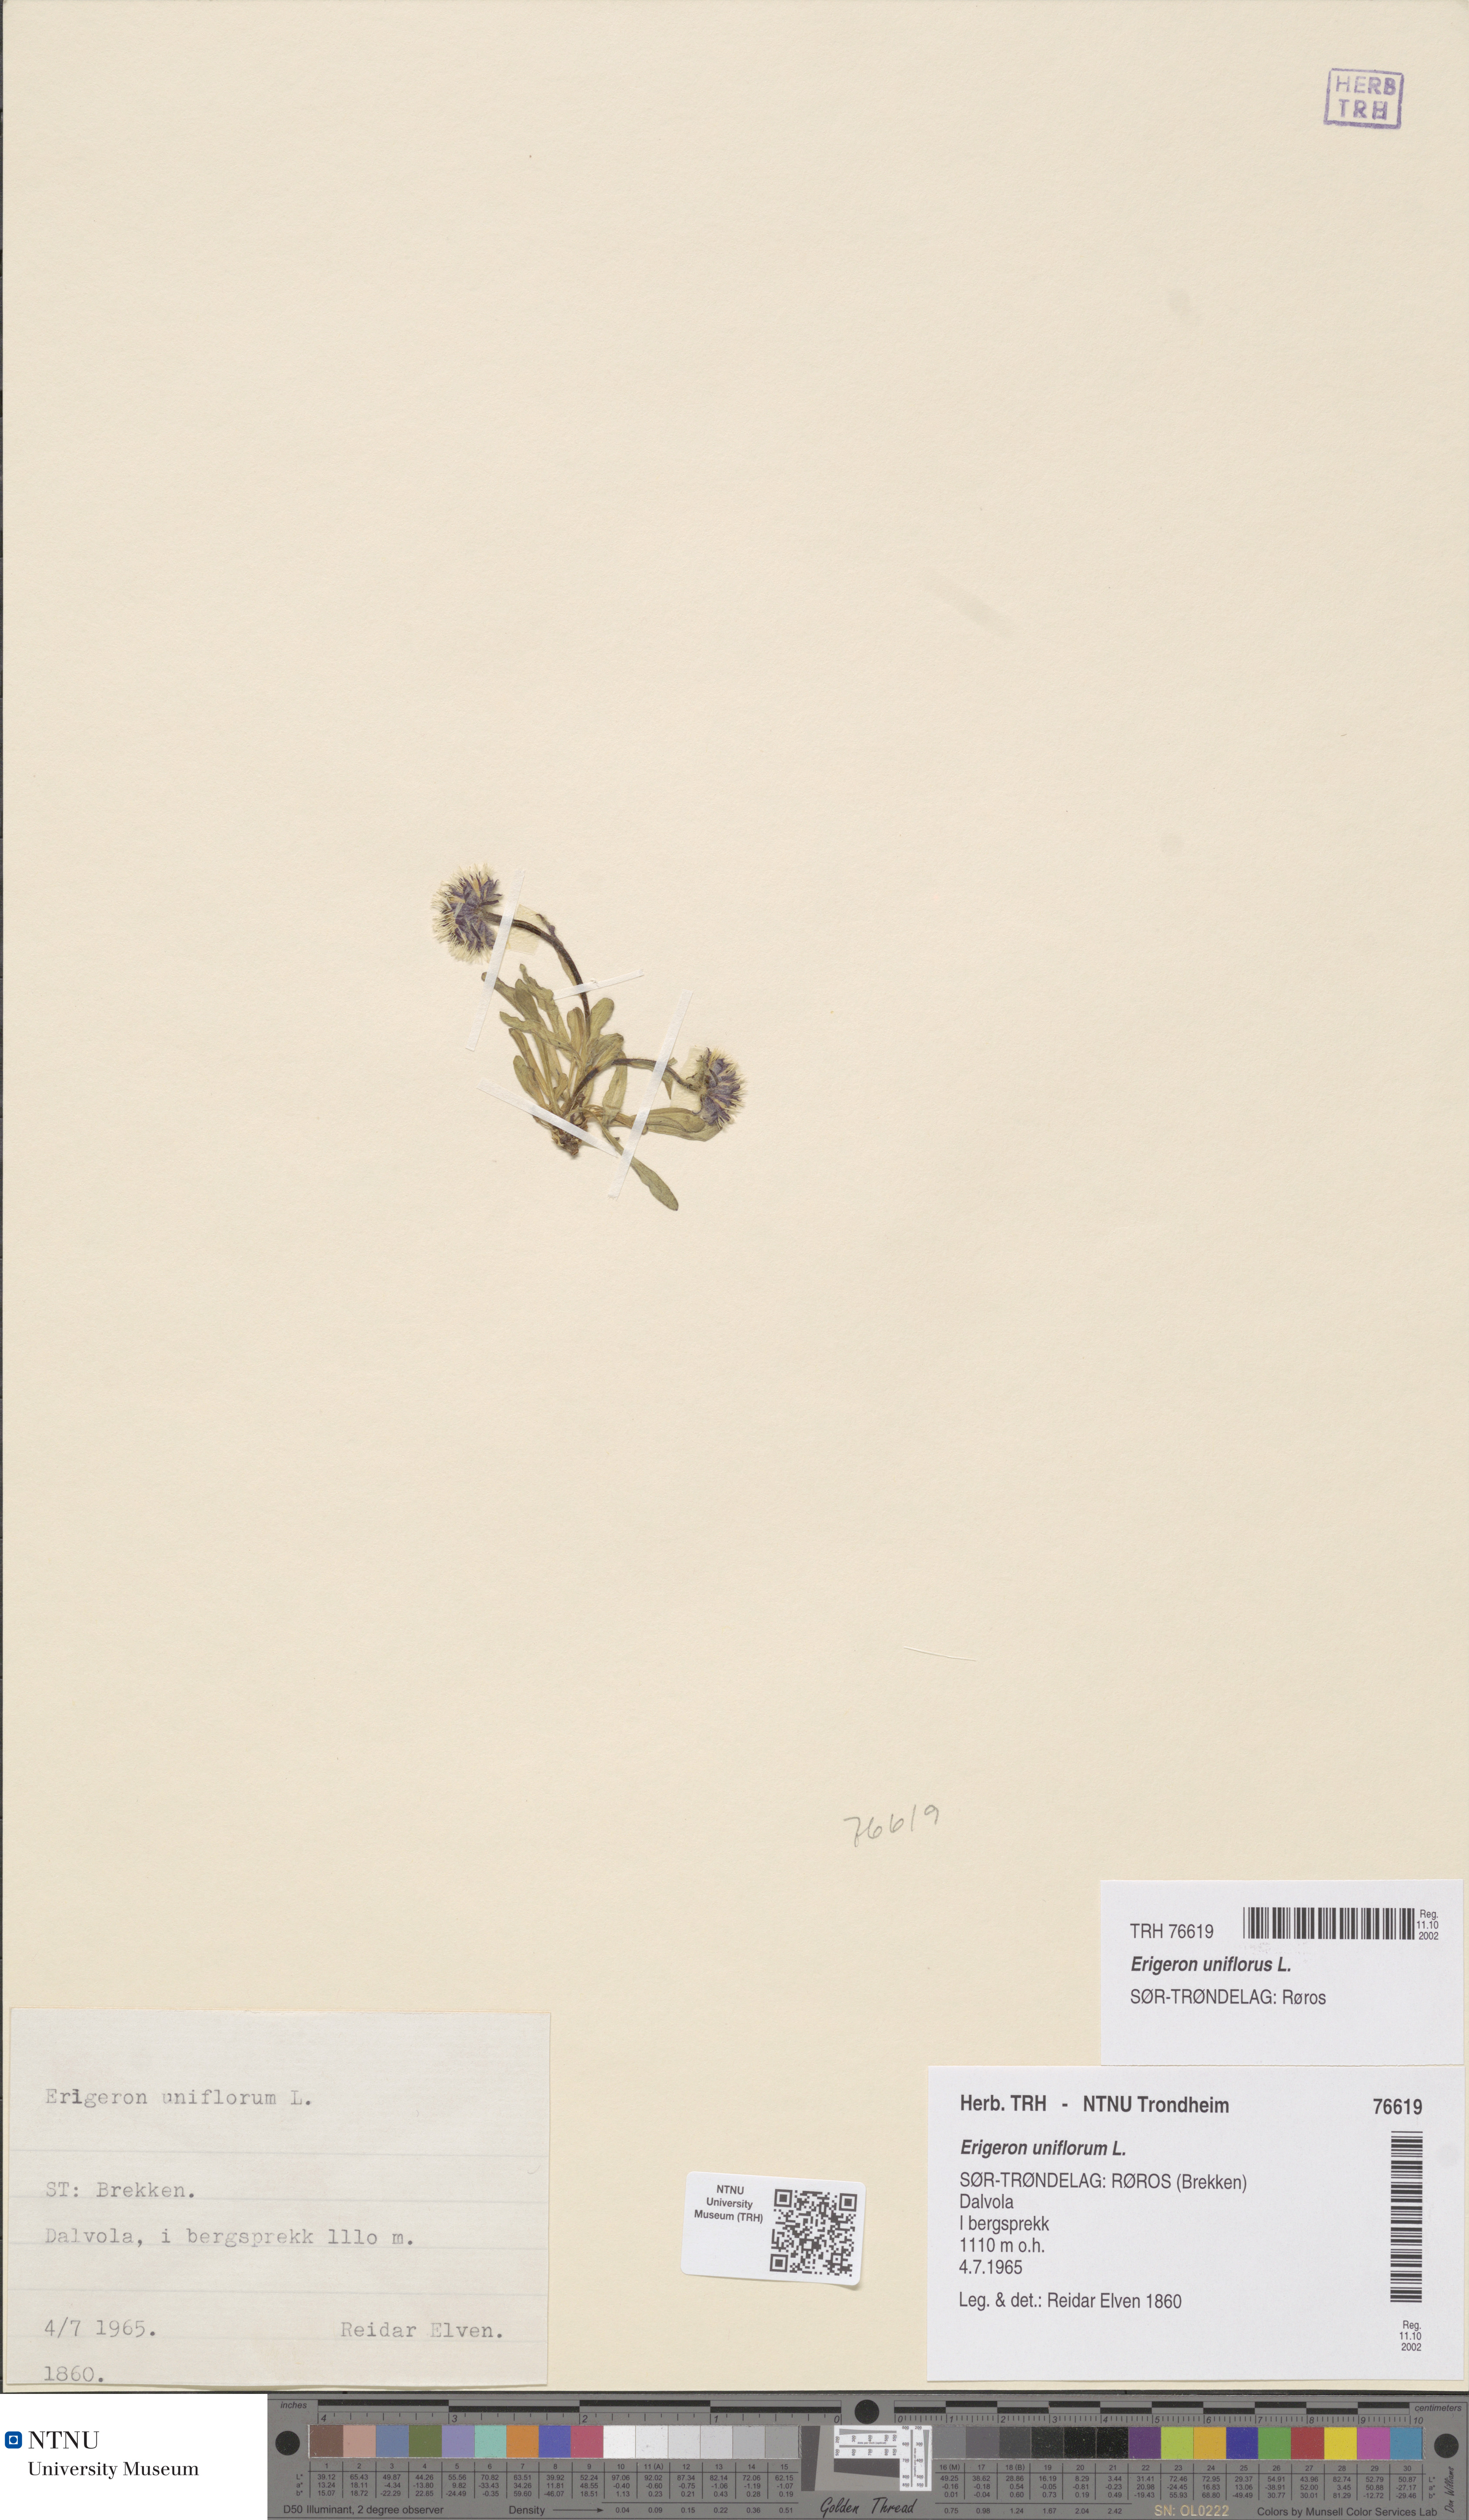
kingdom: Plantae
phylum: Tracheophyta
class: Magnoliopsida
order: Asterales
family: Asteraceae
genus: Erigeron
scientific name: Erigeron uniflorus
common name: Northern daisy
